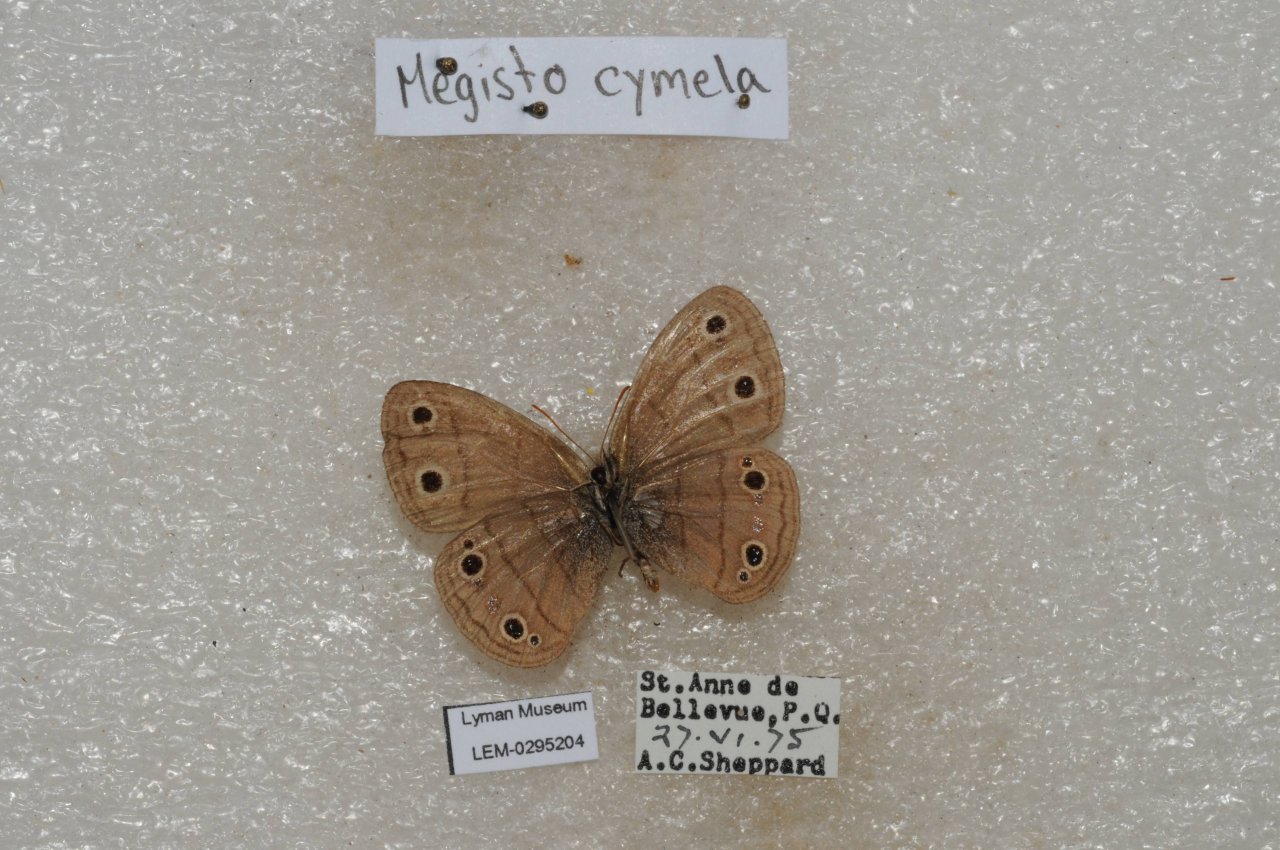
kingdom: Animalia
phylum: Arthropoda
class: Insecta
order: Lepidoptera
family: Nymphalidae
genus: Euptychia
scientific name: Euptychia cymela
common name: Little Wood Satyr
